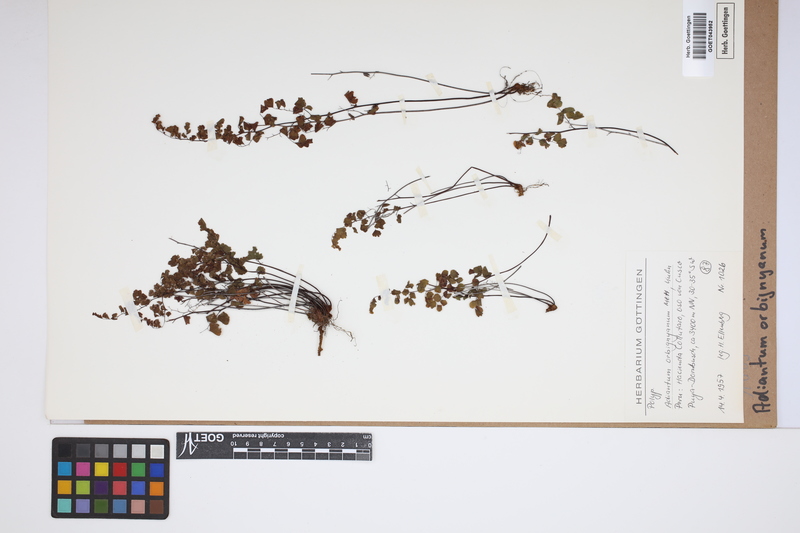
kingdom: Plantae
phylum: Tracheophyta
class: Polypodiopsida
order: Polypodiales
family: Pteridaceae
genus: Adiantum
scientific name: Adiantum orbignyanum
